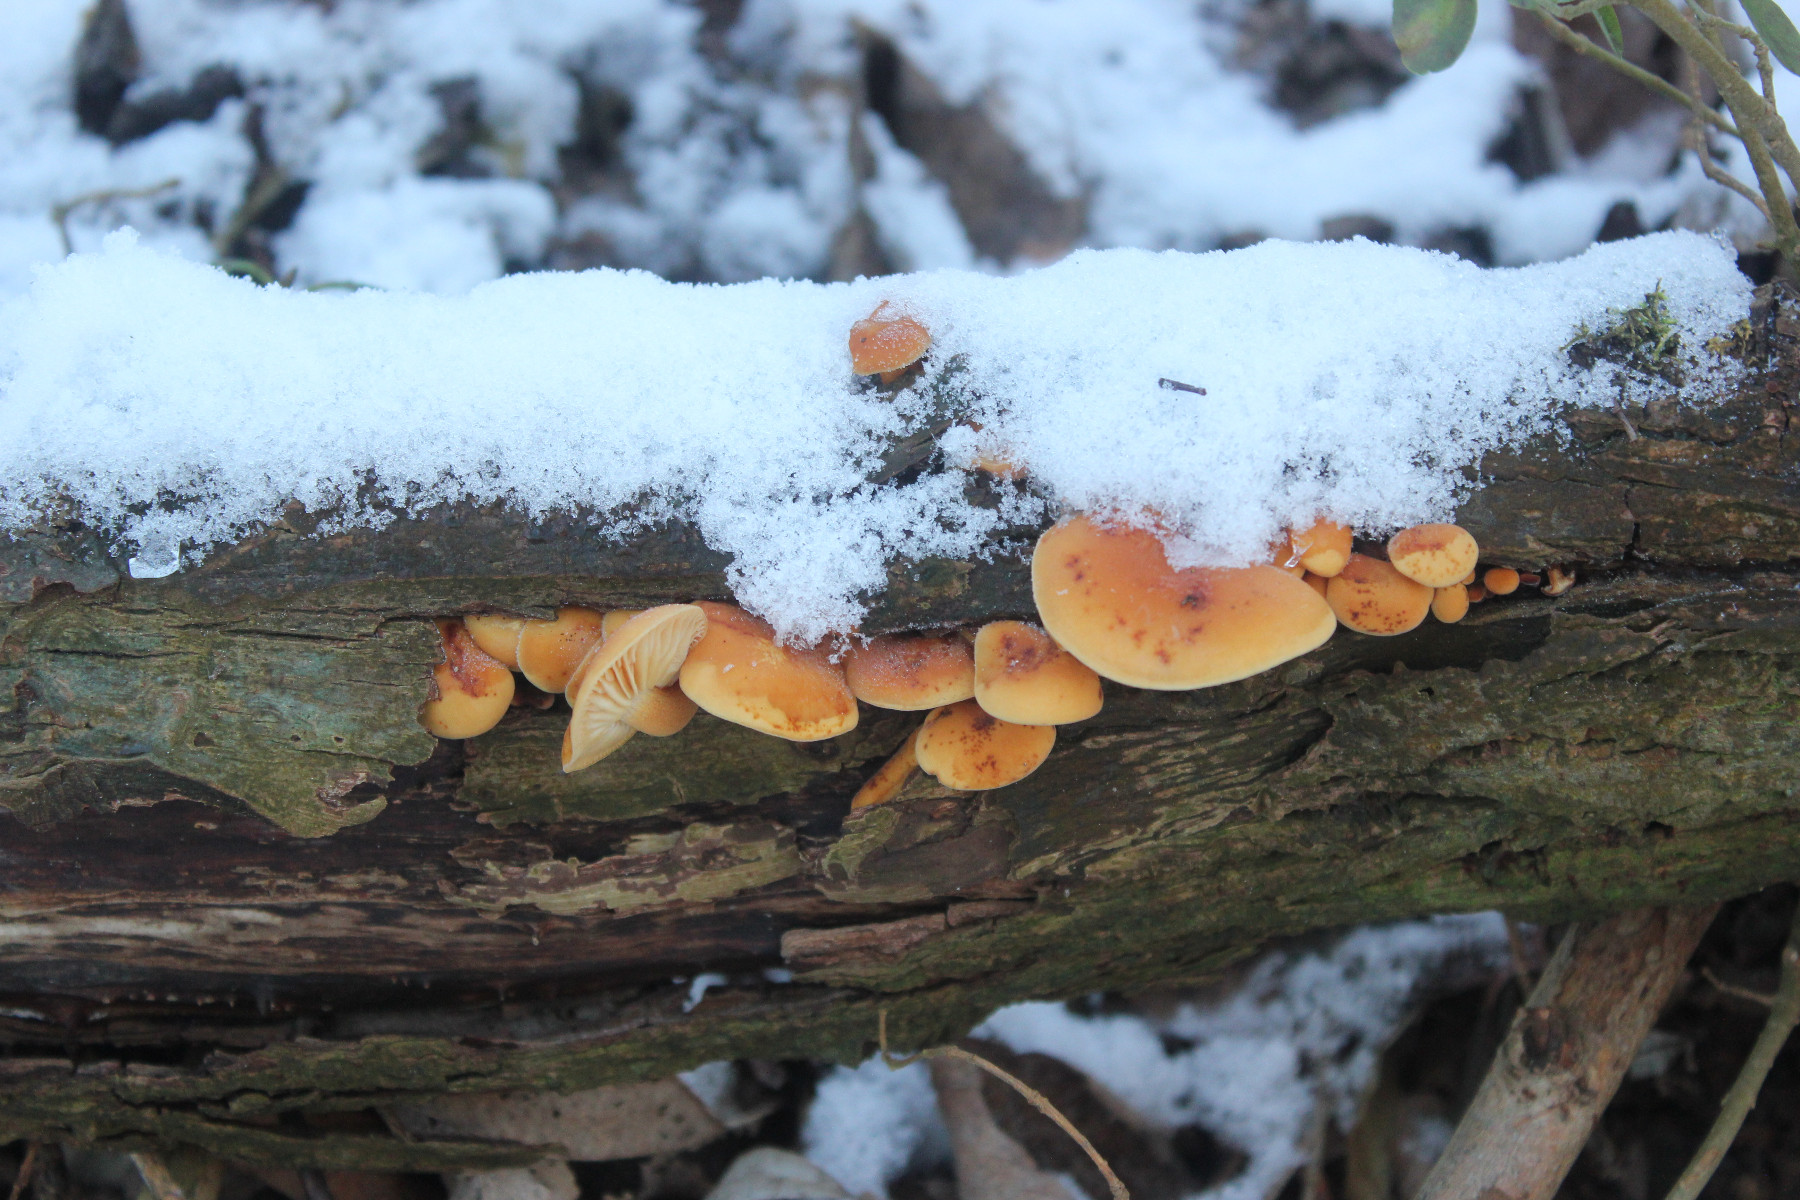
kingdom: Fungi
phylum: Basidiomycota
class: Agaricomycetes
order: Agaricales
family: Physalacriaceae
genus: Flammulina
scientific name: Flammulina elastica
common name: pile-fløjlsfod
